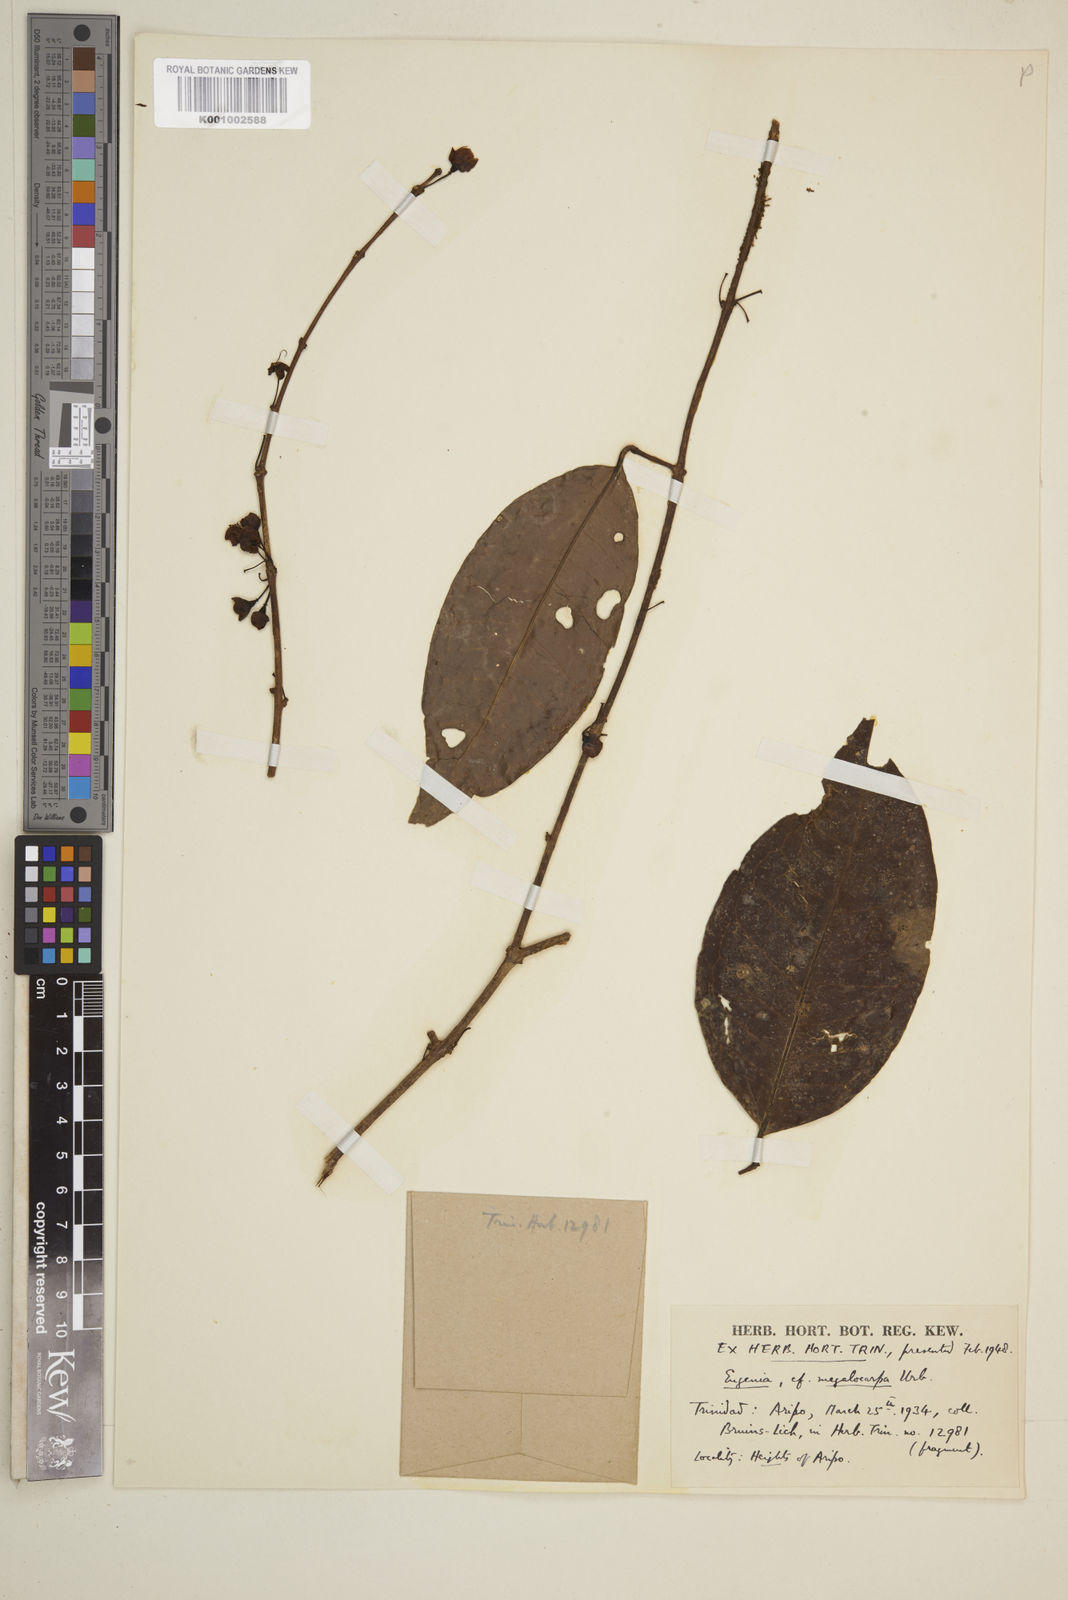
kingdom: Plantae
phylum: Tracheophyta
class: Magnoliopsida
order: Myrtales
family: Myrtaceae
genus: Eugenia
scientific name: Eugenia pseudopsidium
